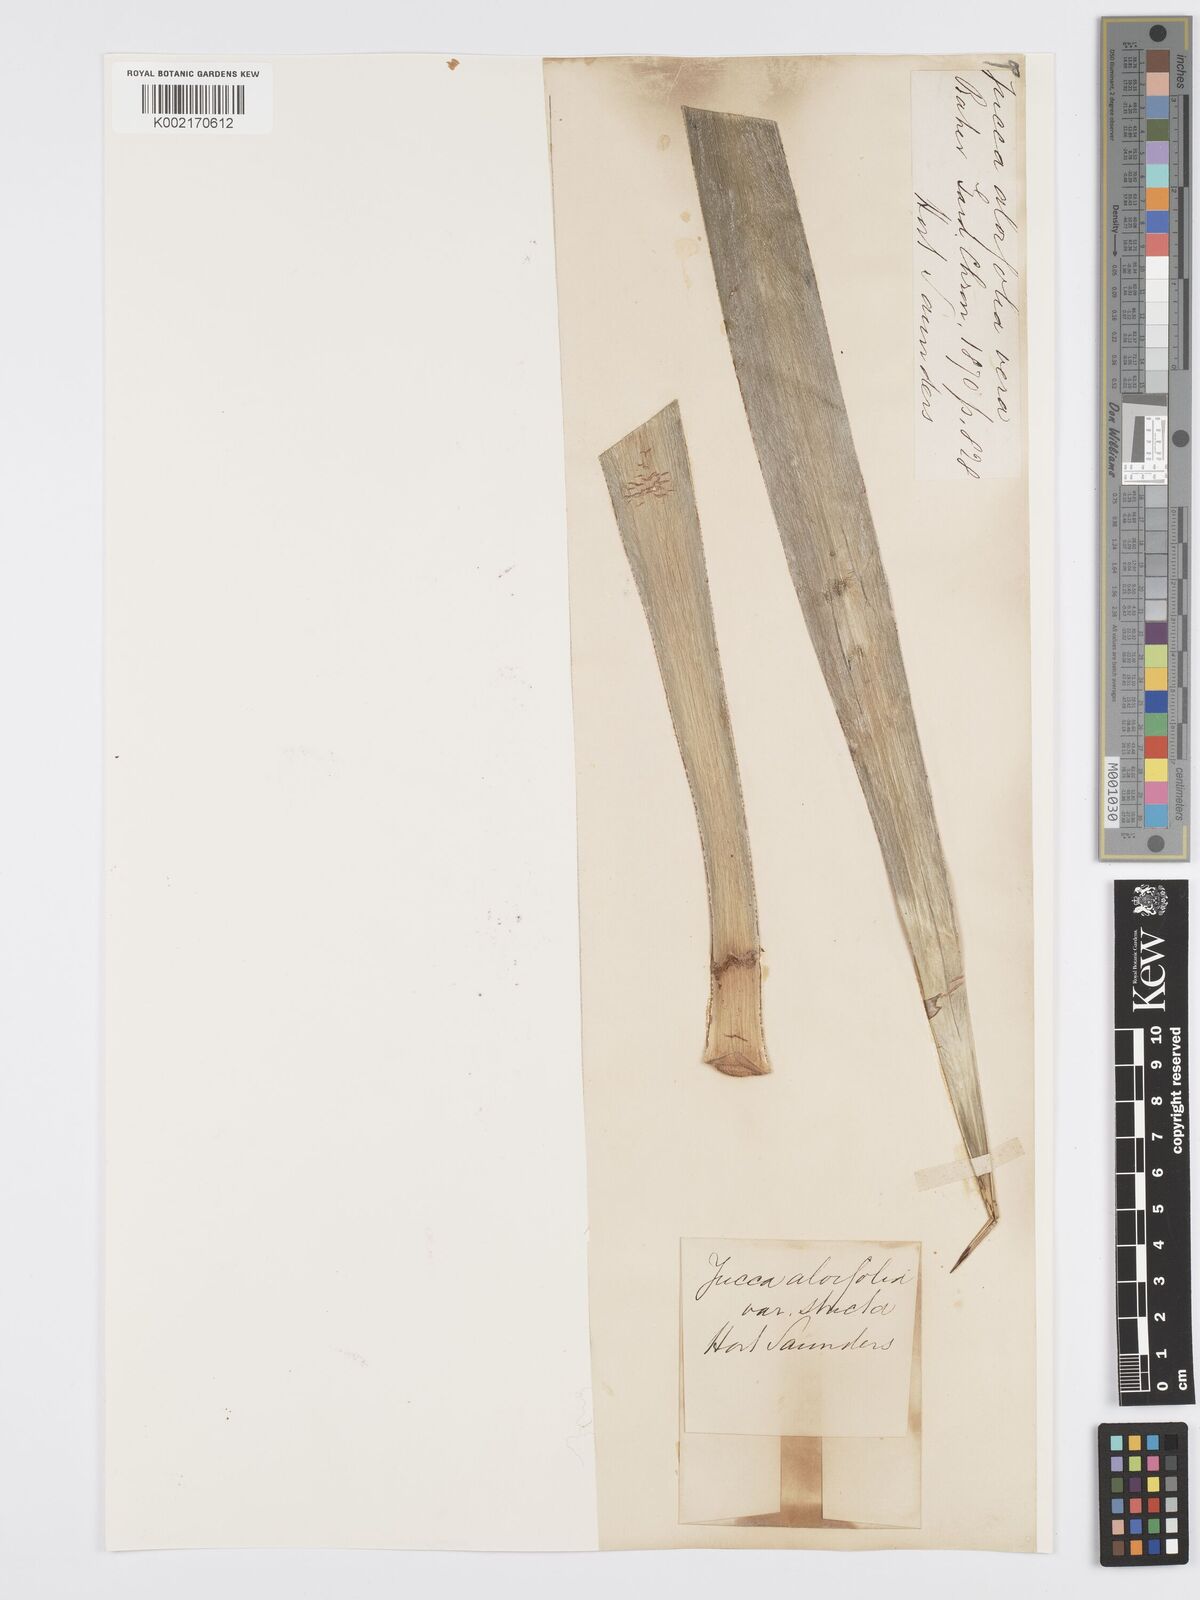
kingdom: Plantae
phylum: Tracheophyta
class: Liliopsida
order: Asparagales
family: Asparagaceae
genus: Yucca
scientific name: Yucca aloifolia
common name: Aloe yucca
